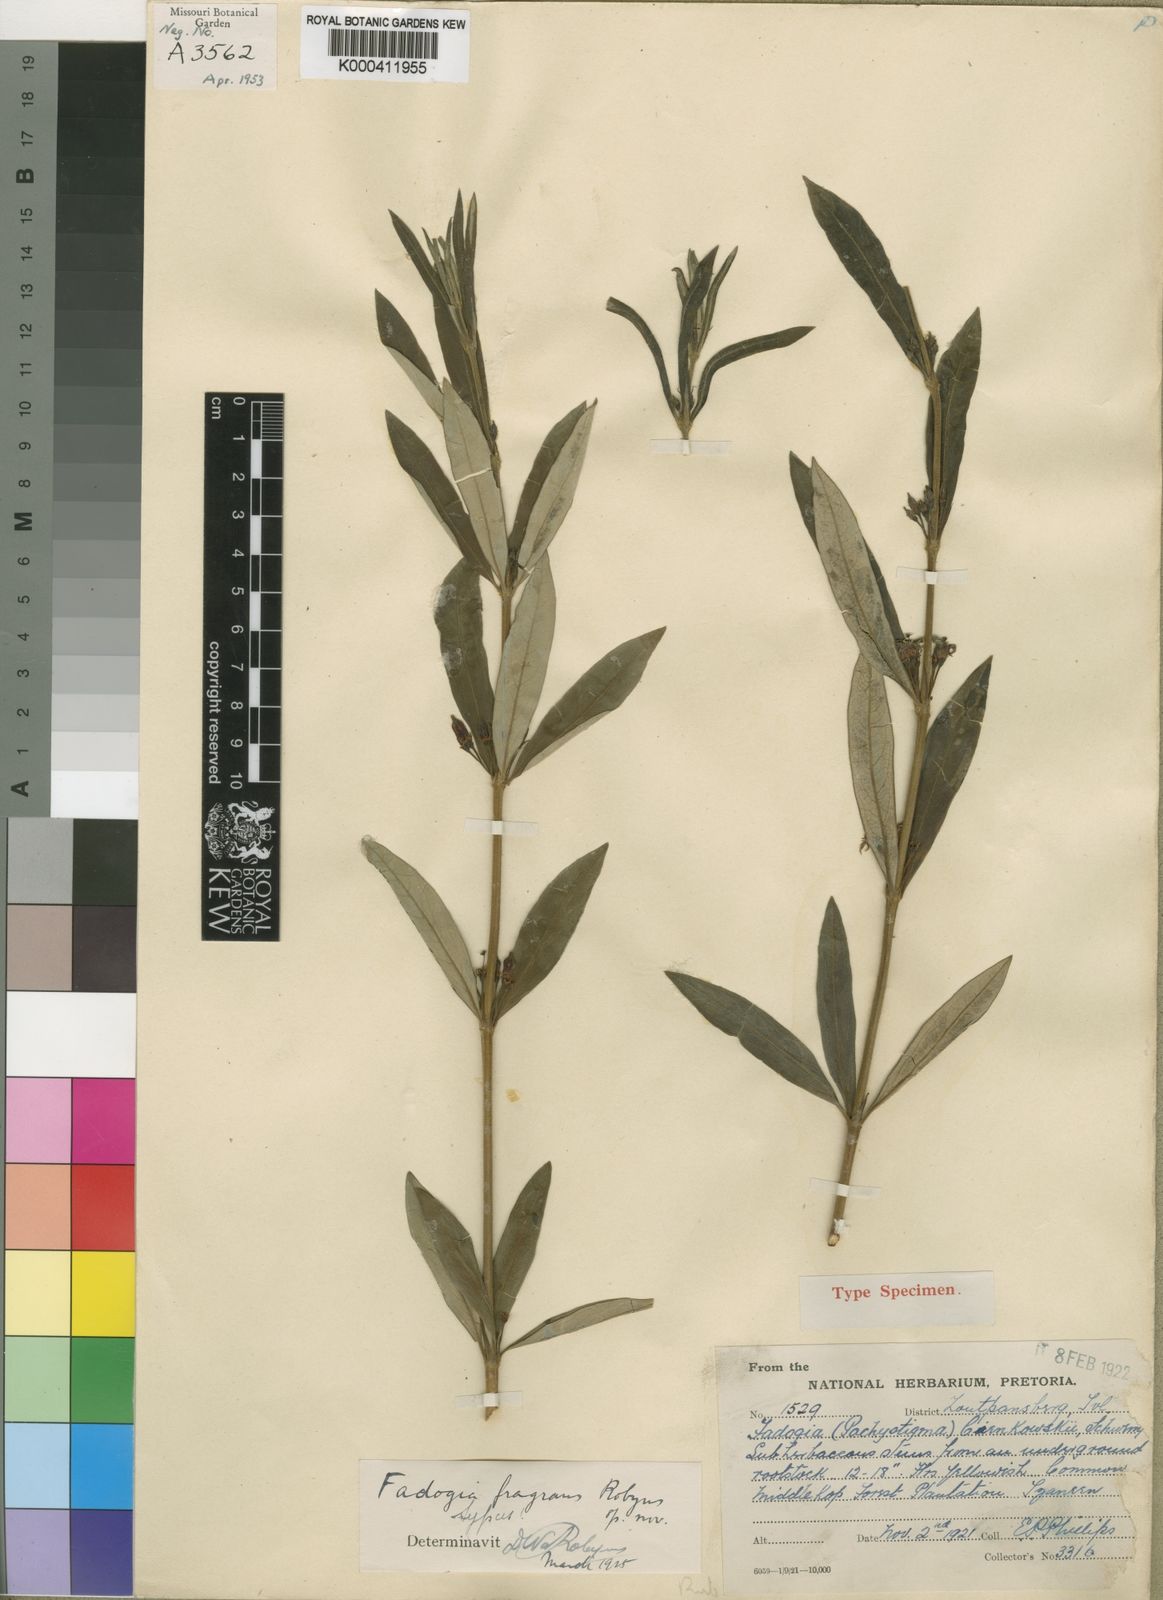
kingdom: Plantae
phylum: Tracheophyta
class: Magnoliopsida
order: Gentianales
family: Rubiaceae
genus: Fadogia
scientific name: Fadogia homblei
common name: Wild date
